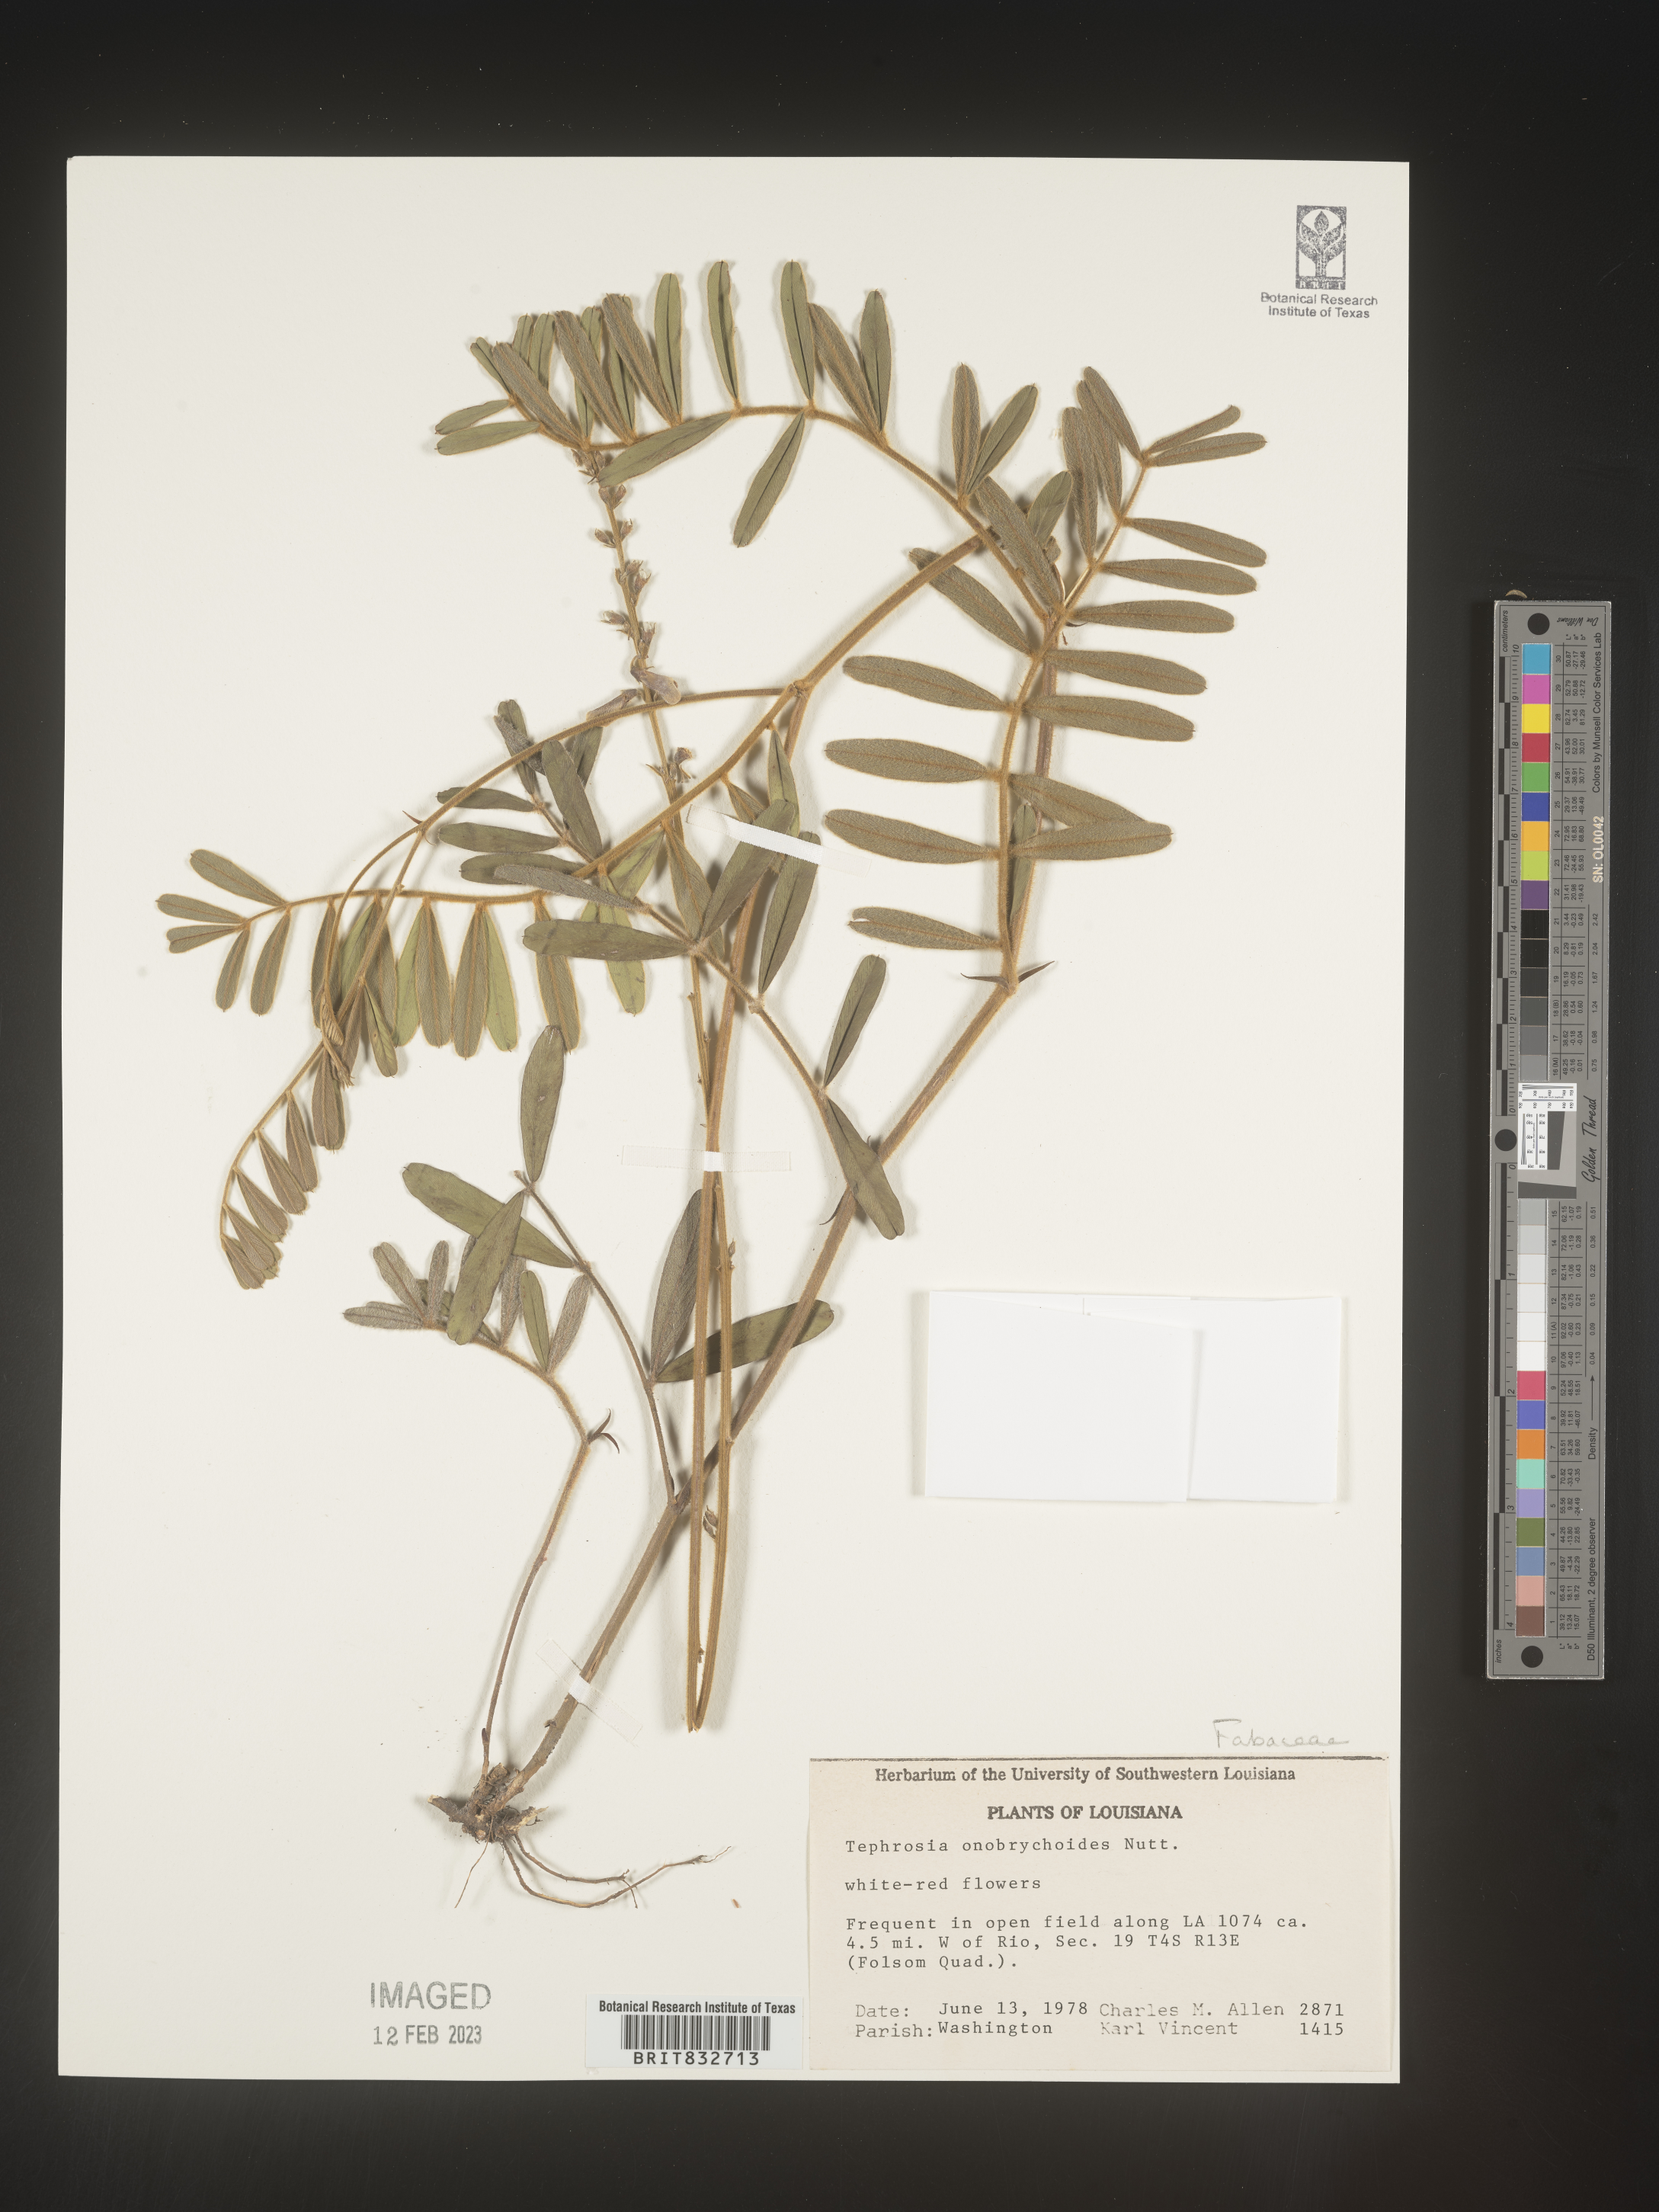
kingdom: Plantae
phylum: Tracheophyta
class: Magnoliopsida
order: Fabales
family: Fabaceae
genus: Tephrosia
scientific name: Tephrosia onobrychoides
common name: Multi-bloom hoary-pea
